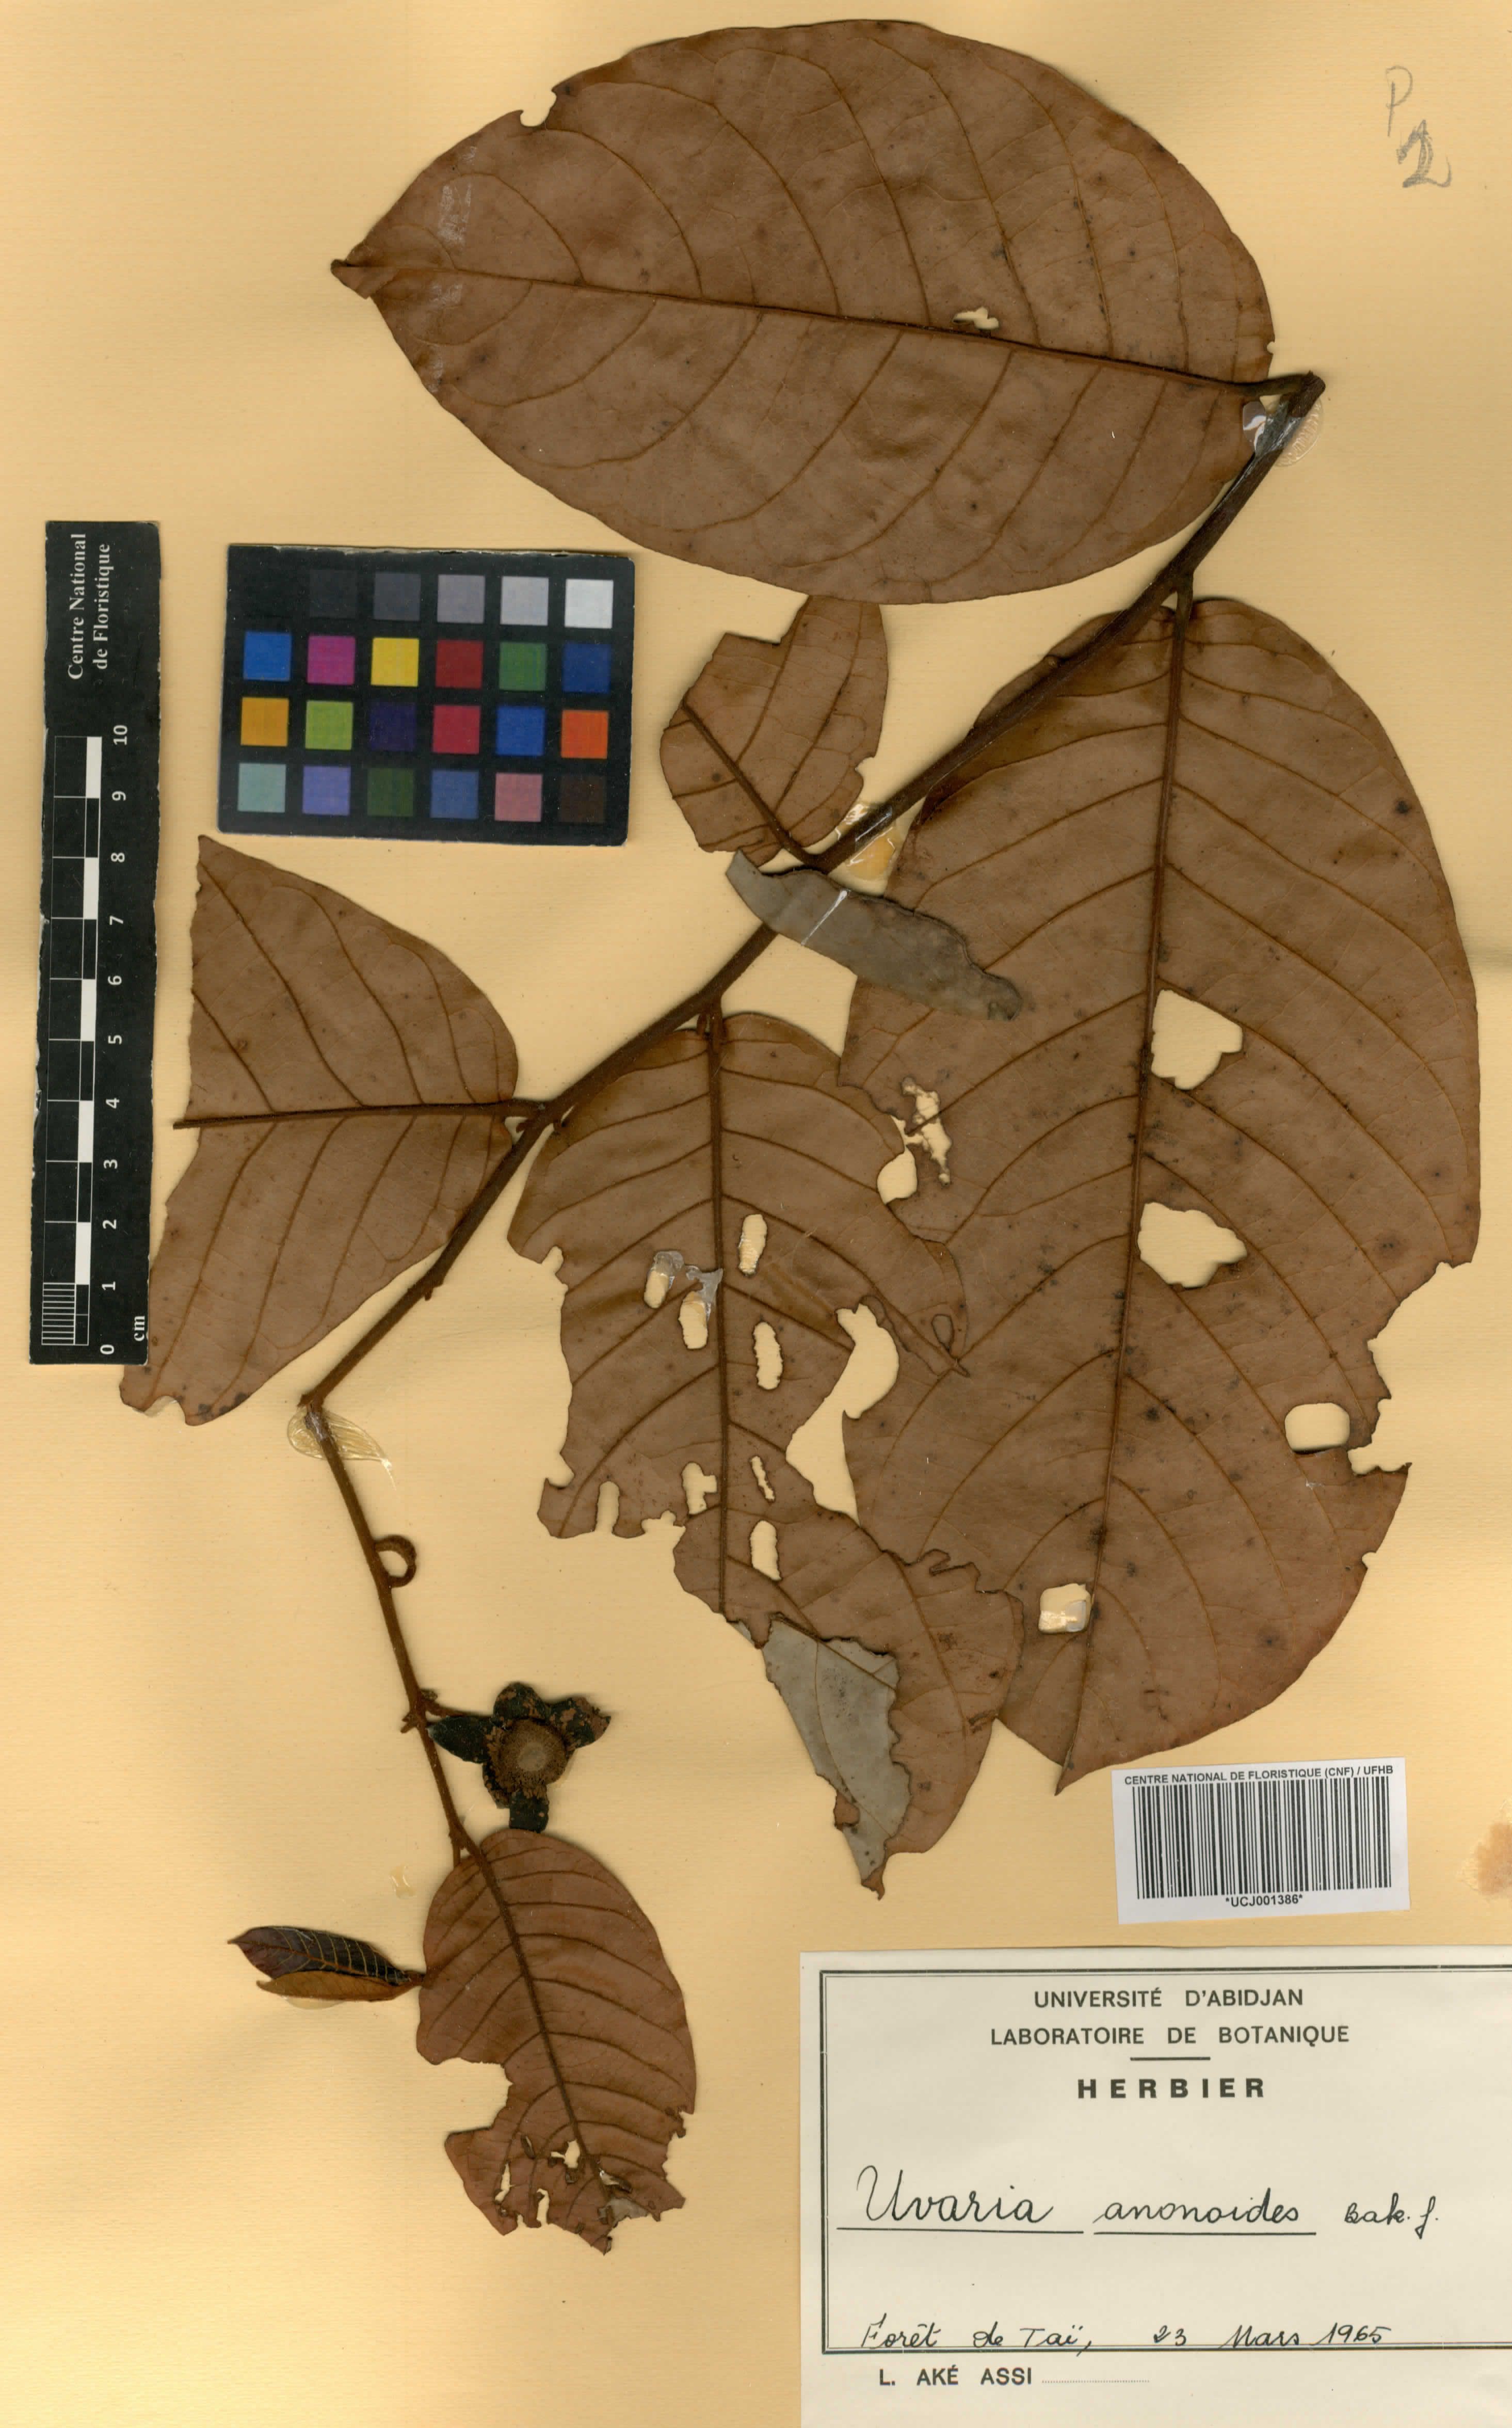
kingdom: Plantae
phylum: Tracheophyta
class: Magnoliopsida
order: Magnoliales
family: Annonaceae
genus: Uvaria
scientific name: Uvaria anonoides
